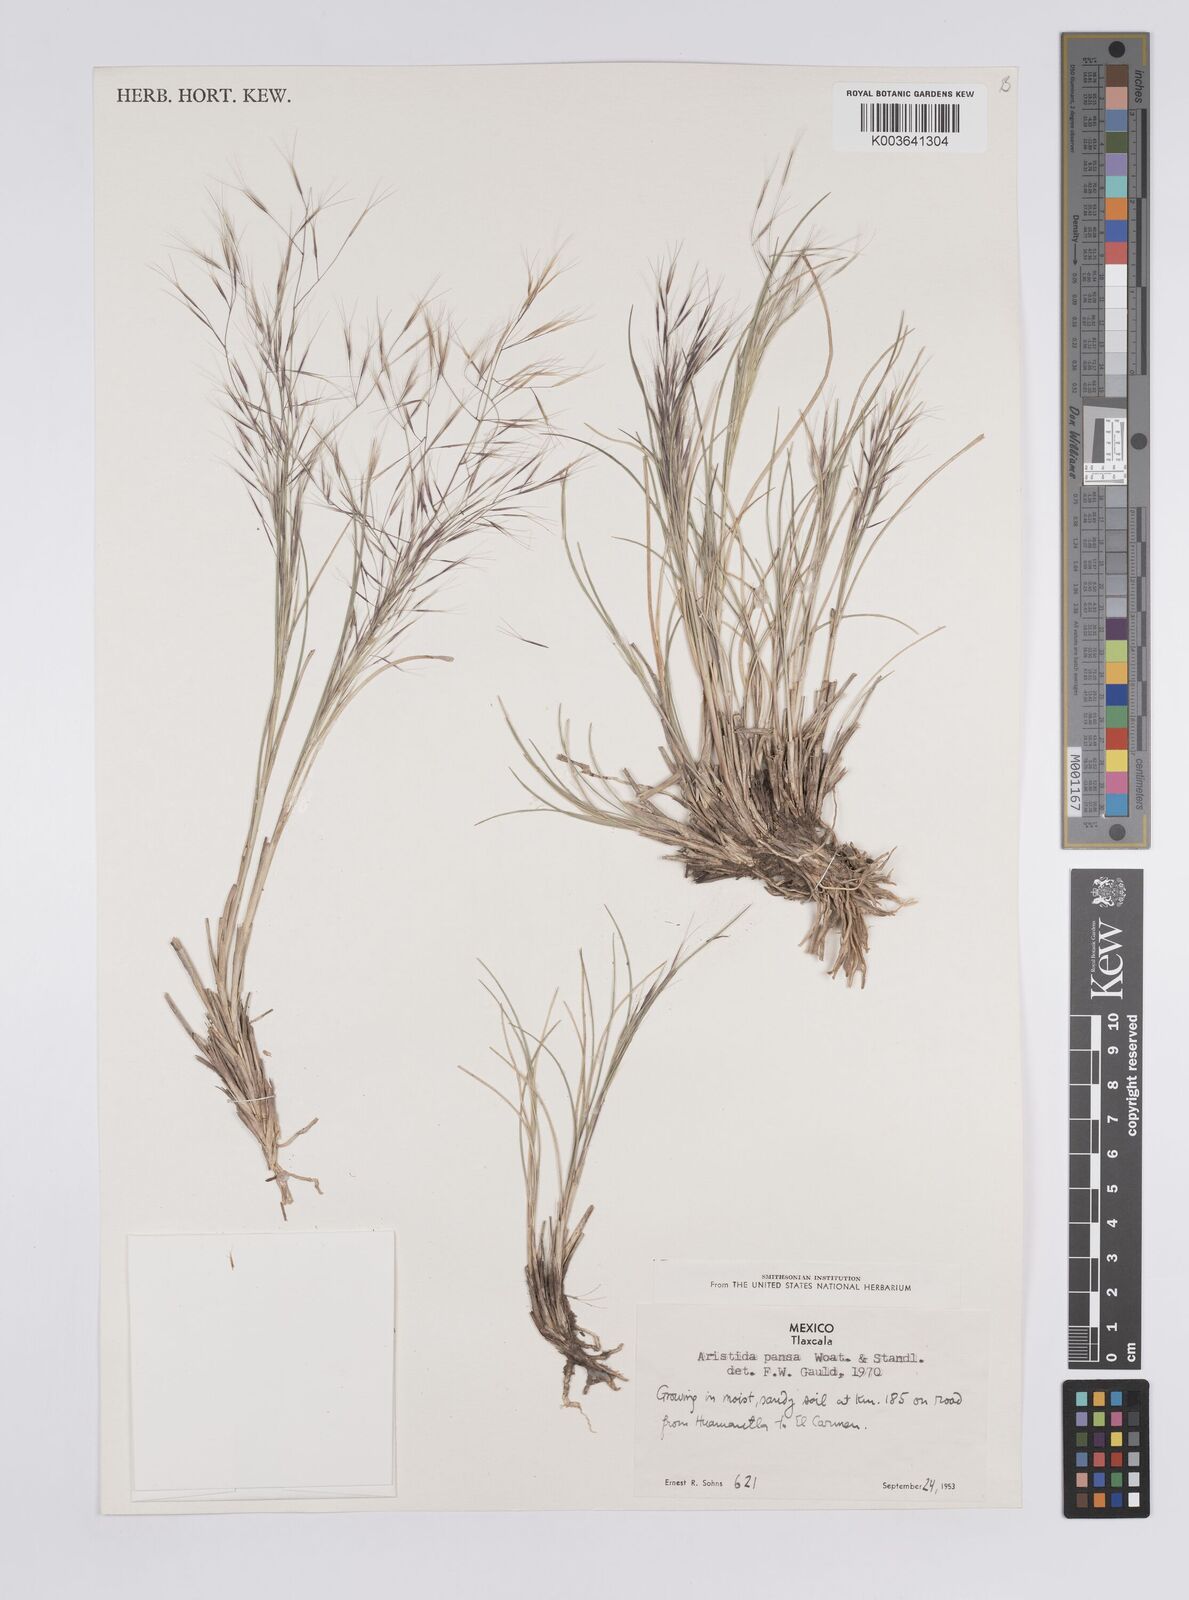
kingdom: Plantae
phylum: Tracheophyta
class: Liliopsida
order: Poales
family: Poaceae
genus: Aristida
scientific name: Aristida pansa
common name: Wooton's three-awn
